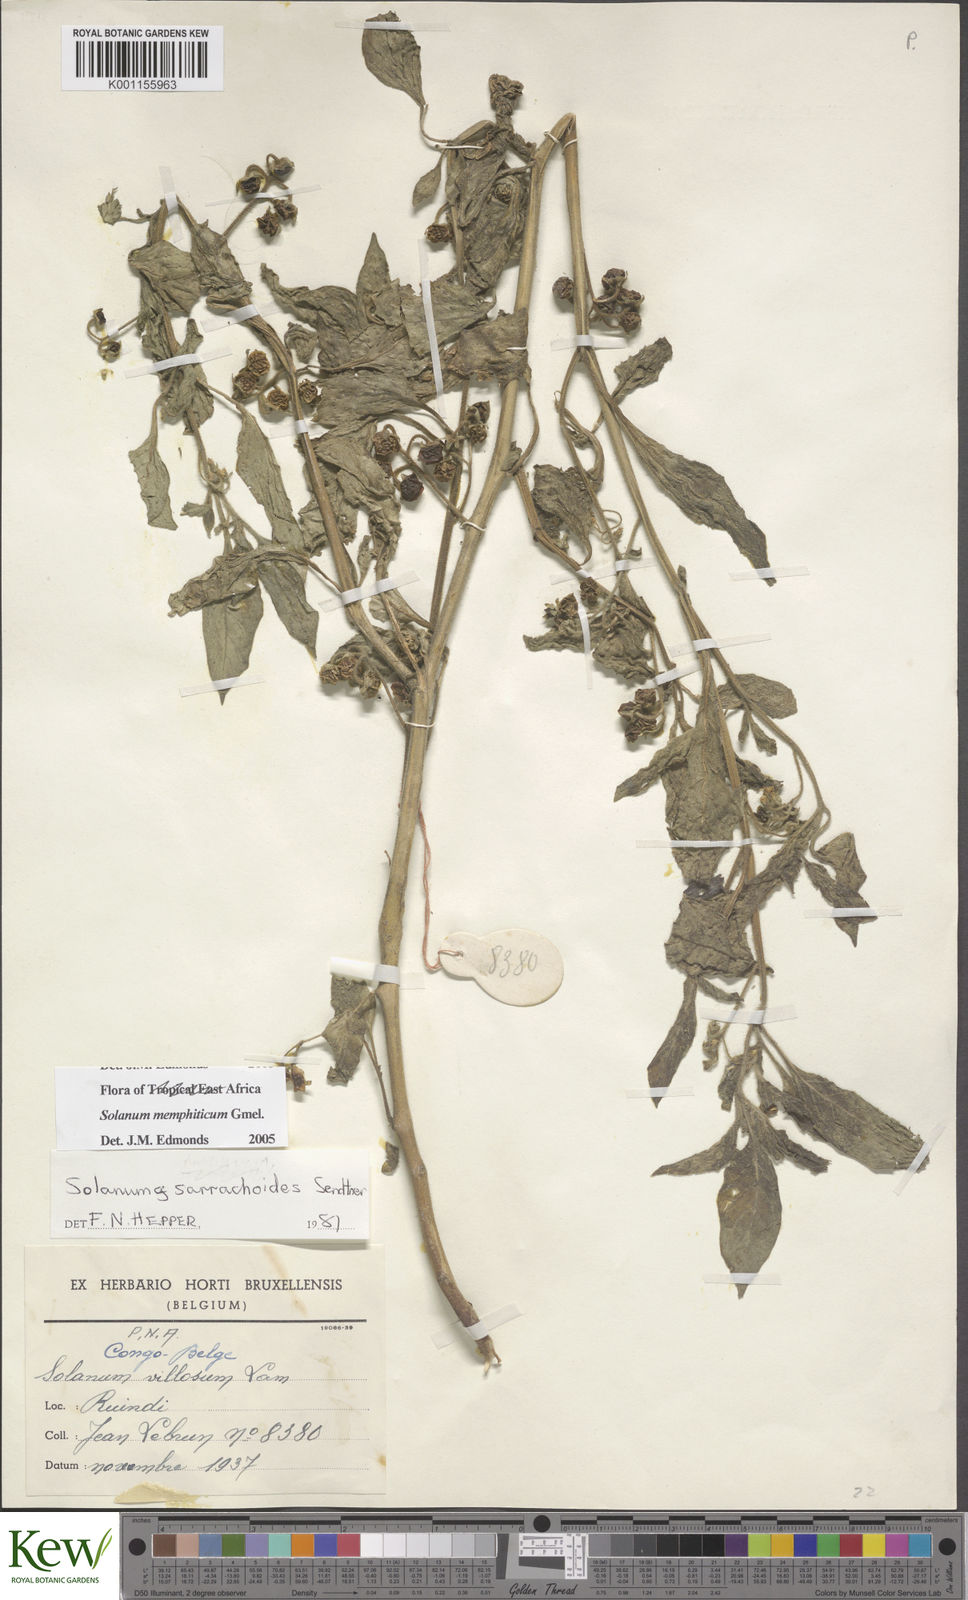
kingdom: Plantae
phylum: Tracheophyta
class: Magnoliopsida
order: Solanales
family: Solanaceae
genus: Solanum
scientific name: Solanum memphiticum
